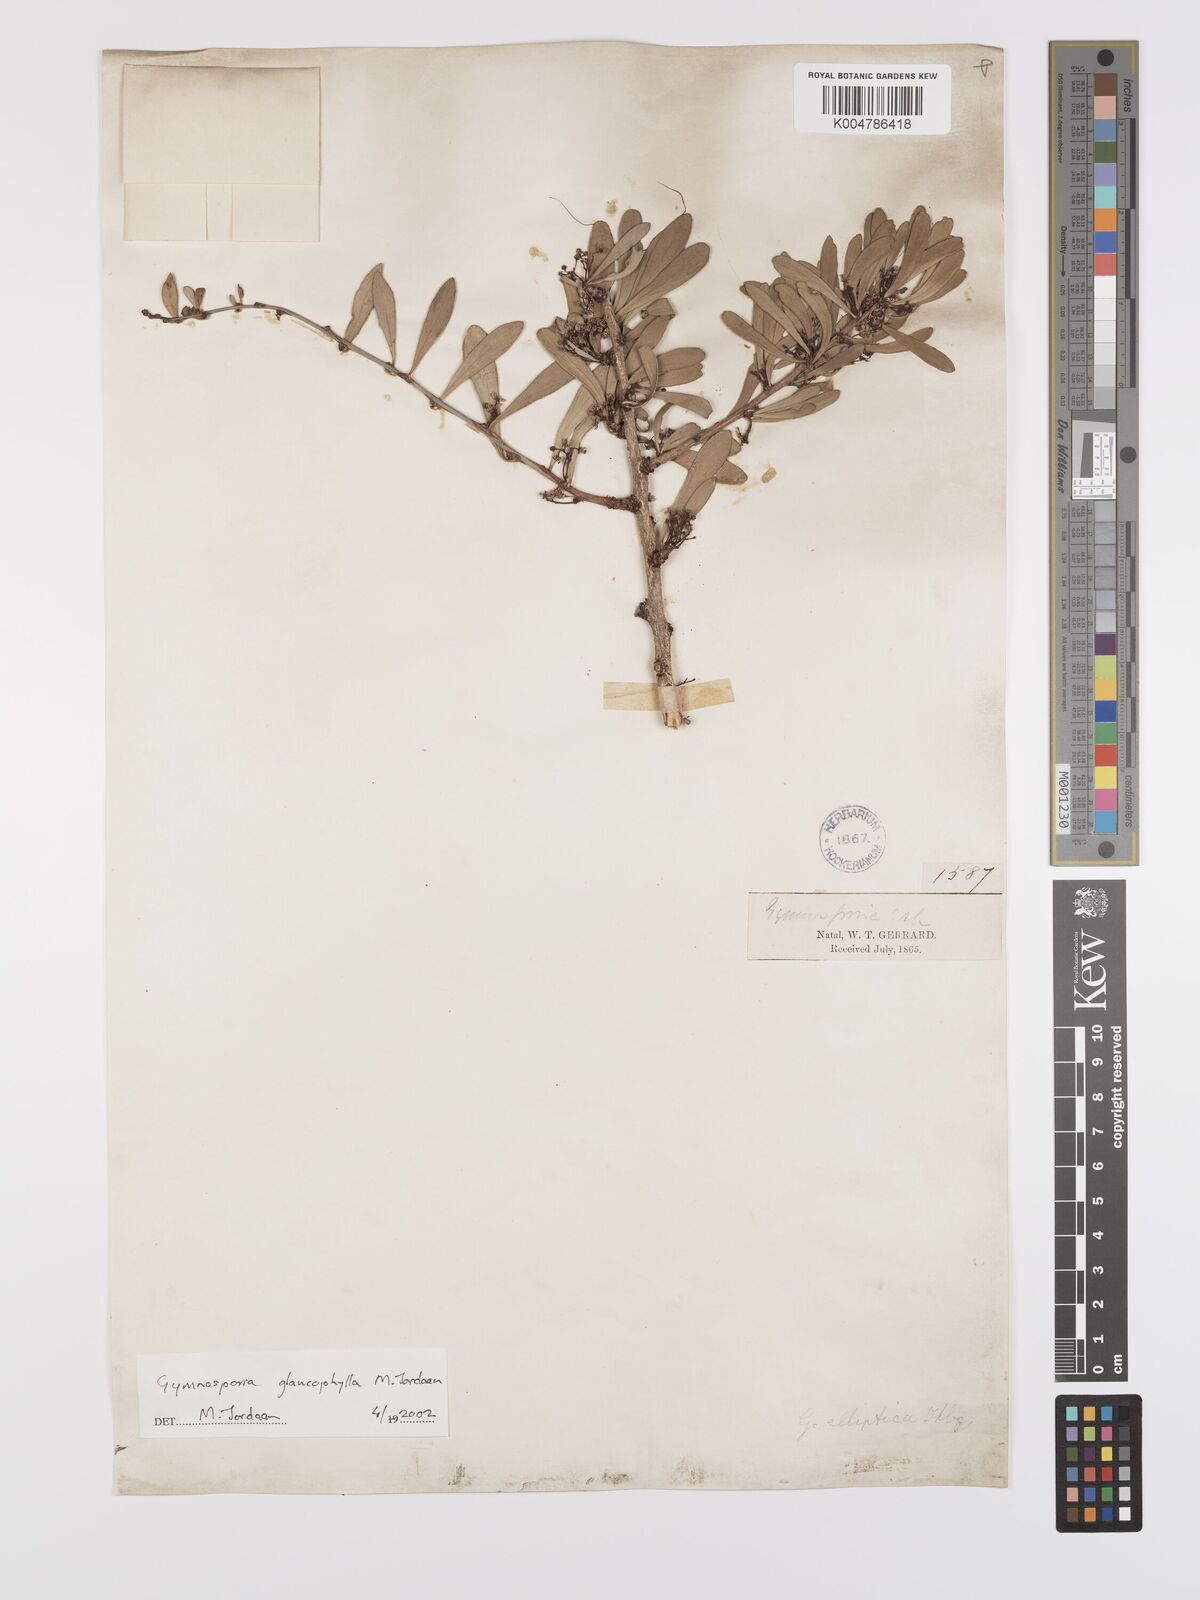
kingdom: Plantae
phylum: Tracheophyta
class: Magnoliopsida
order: Celastrales
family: Celastraceae
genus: Gymnosporia
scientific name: Gymnosporia glaucophylla
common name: Blue spike-thorn
